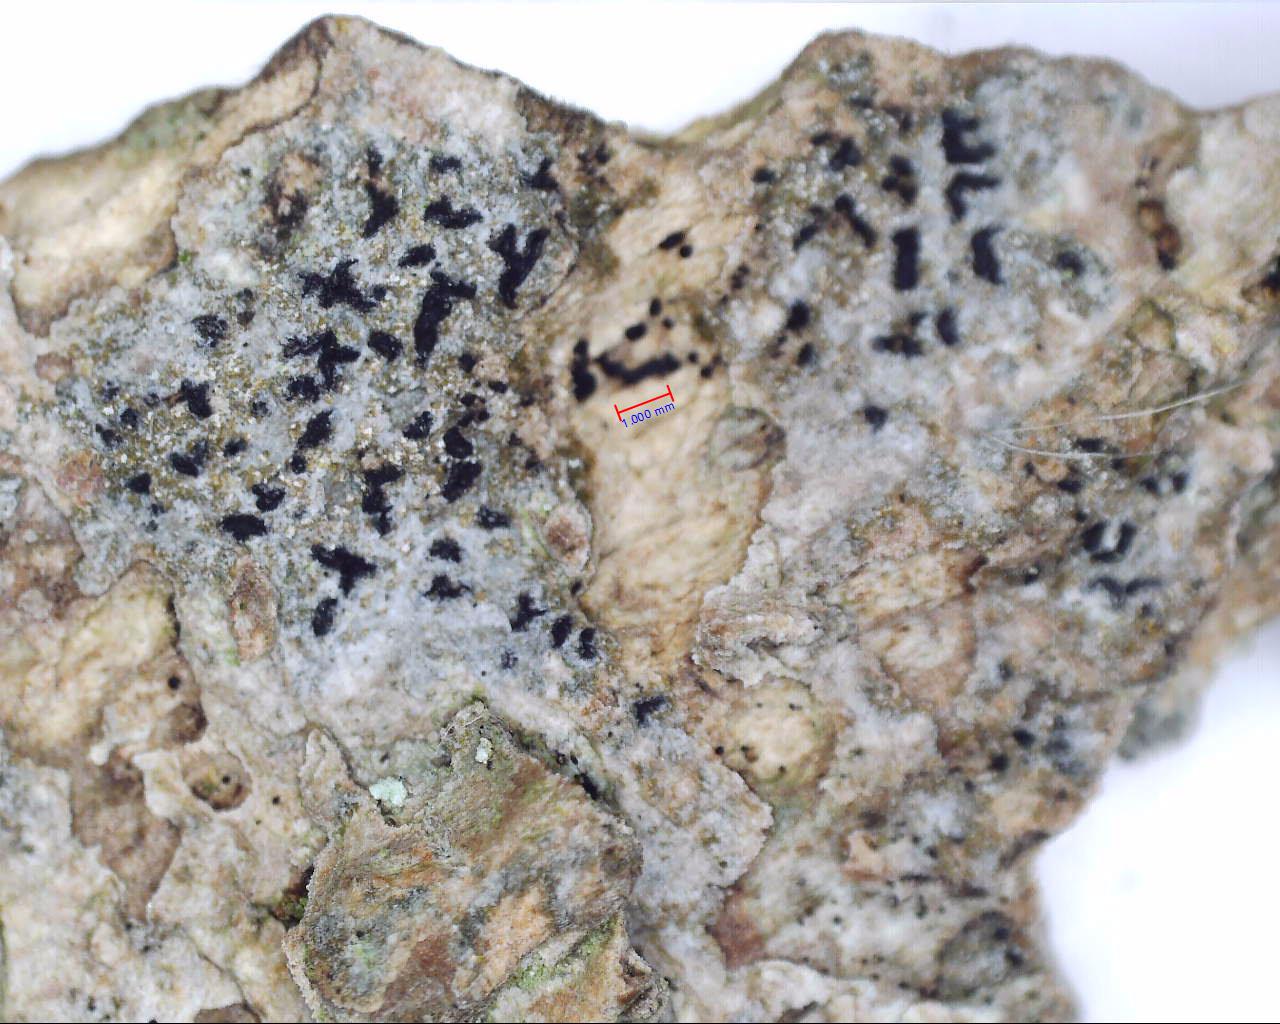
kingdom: Fungi
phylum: Ascomycota
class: Arthoniomycetes
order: Arthoniales
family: Lecanographaceae
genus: Alyxoria
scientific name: Alyxoria varia
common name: almindelig bogstavlav
